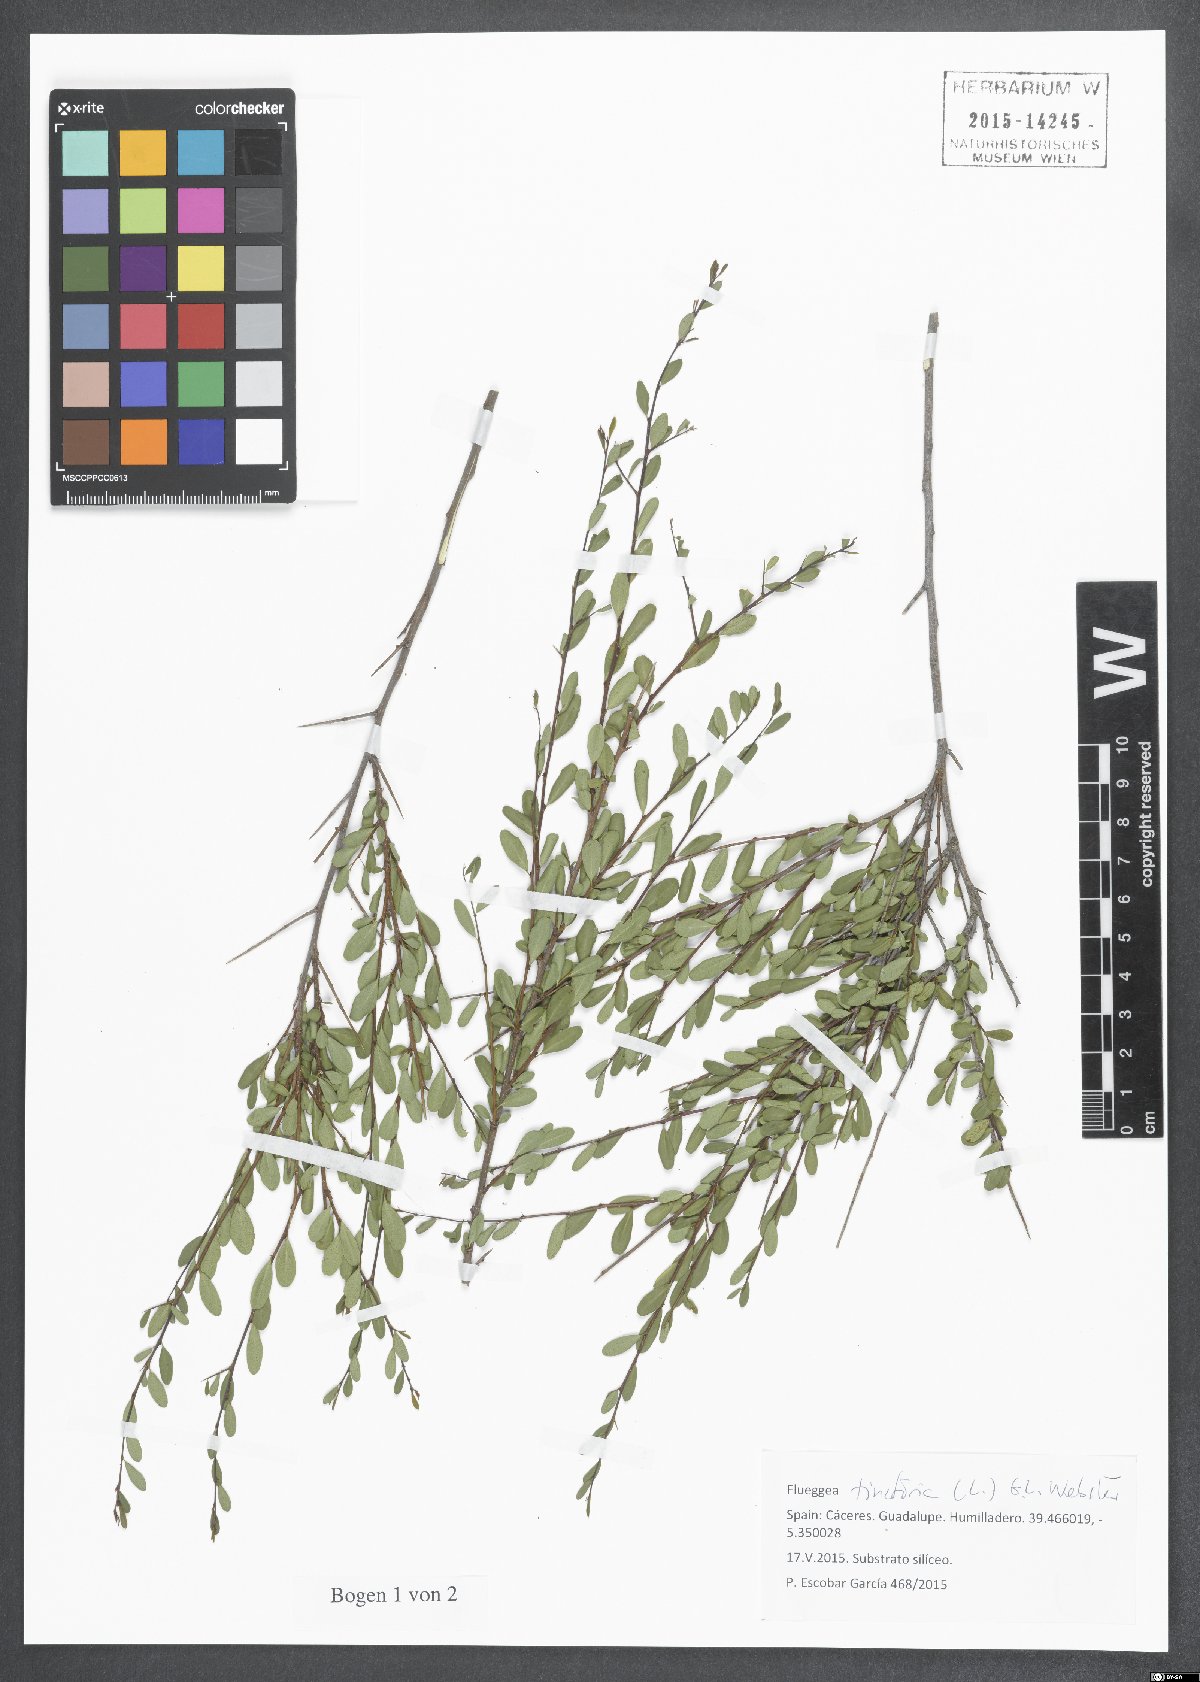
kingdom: Plantae
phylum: Tracheophyta
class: Magnoliopsida
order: Malpighiales
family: Phyllanthaceae
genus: Flueggea
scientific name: Flueggea tinctoria
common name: Tamujo
